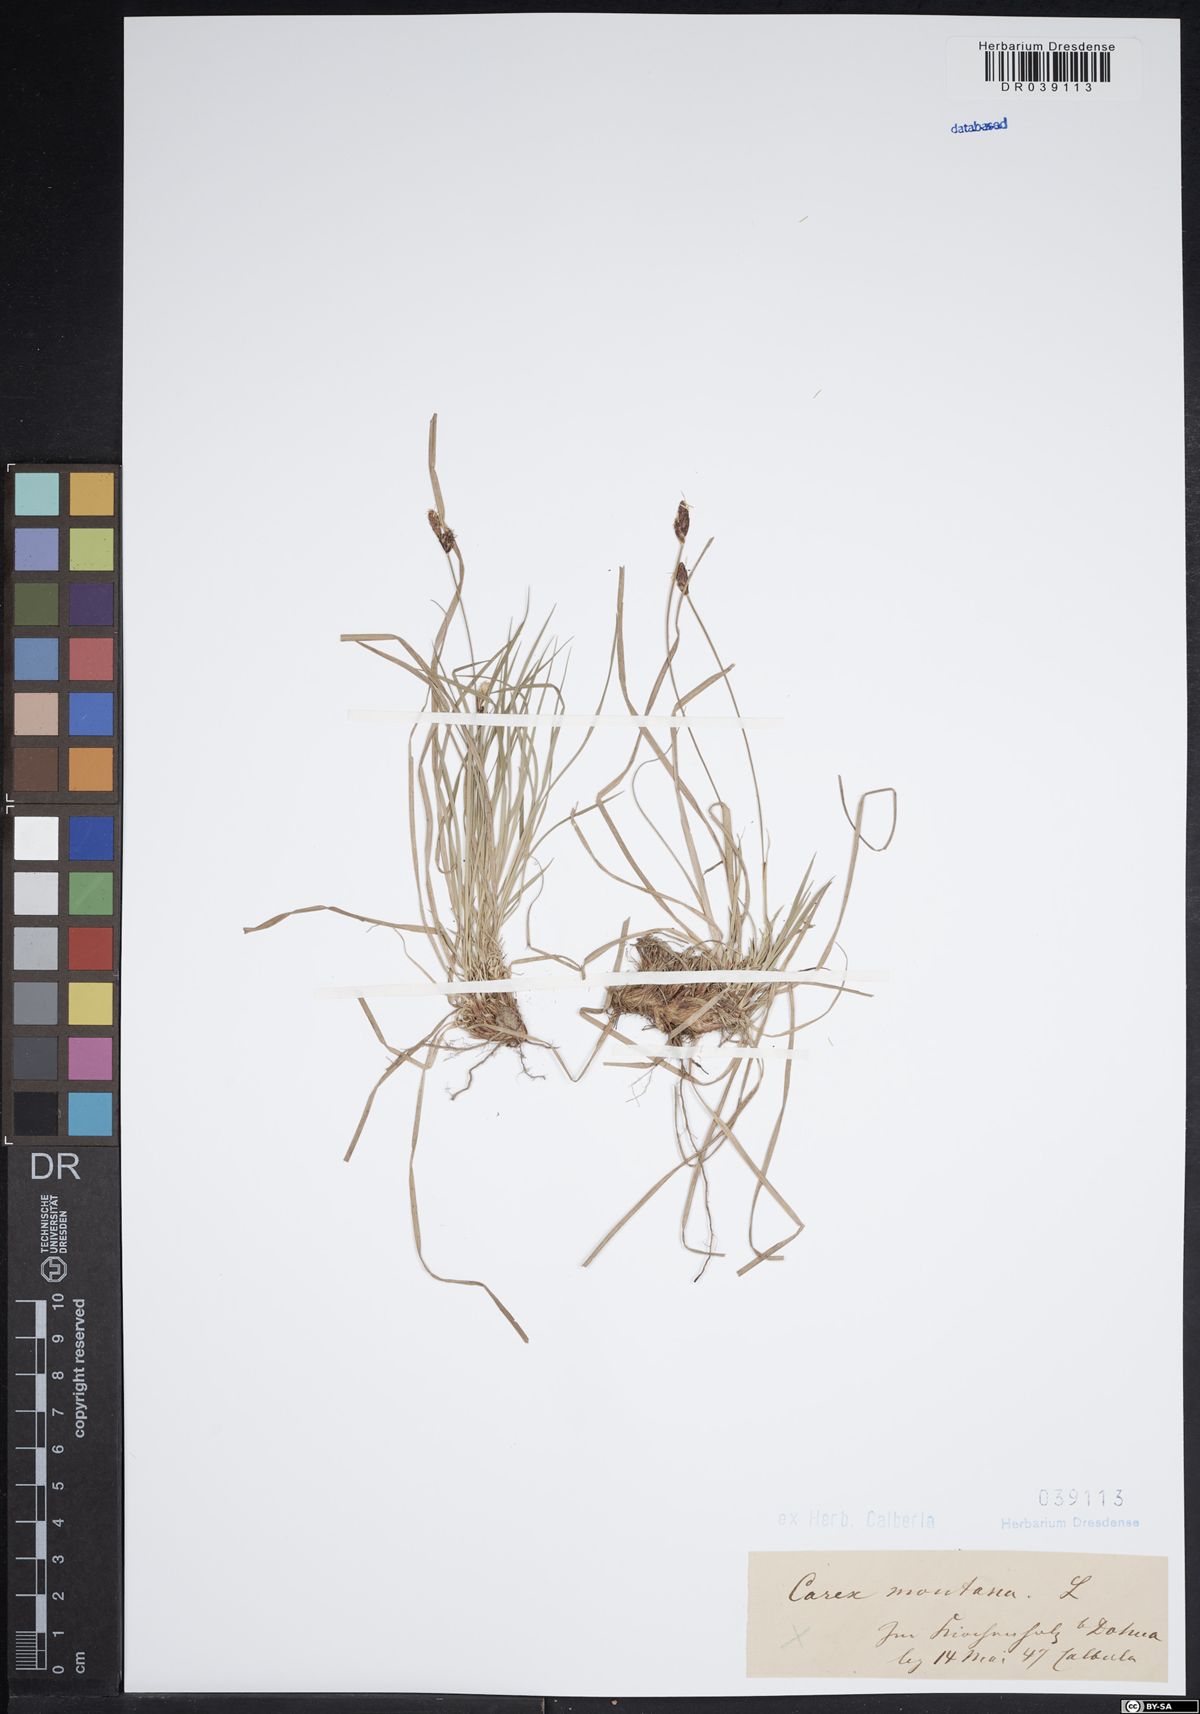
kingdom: Plantae
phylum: Tracheophyta
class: Liliopsida
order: Poales
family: Cyperaceae
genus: Carex
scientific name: Carex montana
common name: Soft-leaved sedge
